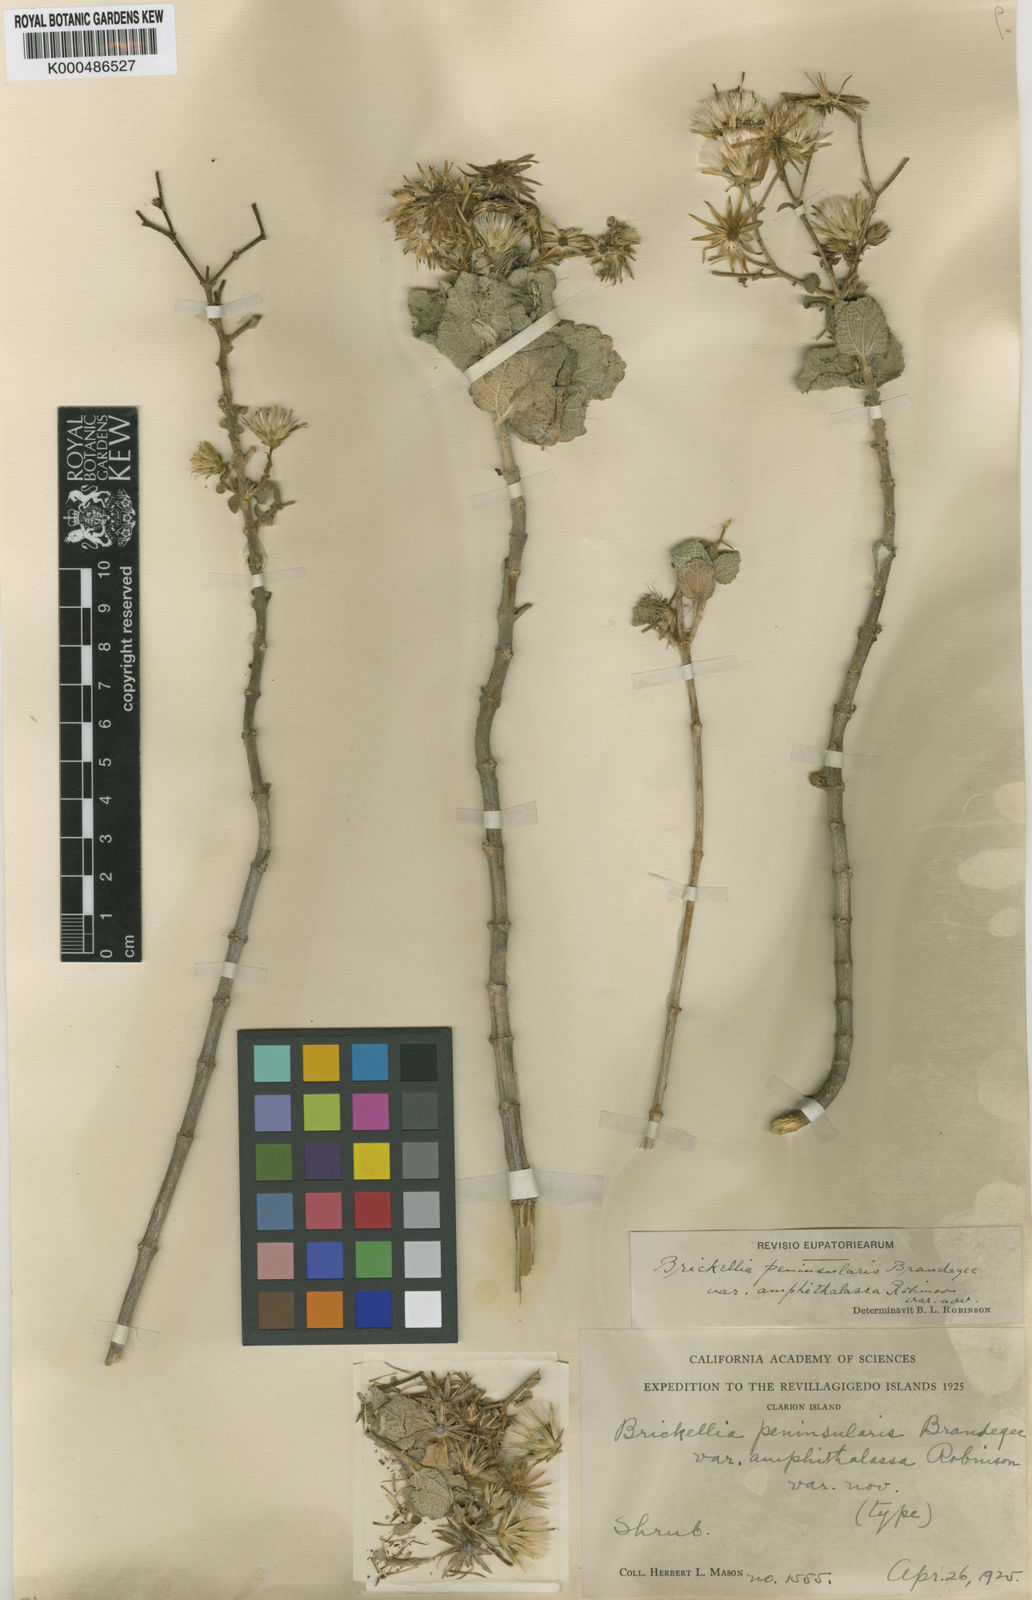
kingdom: Plantae
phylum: Tracheophyta
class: Magnoliopsida
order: Asterales
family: Asteraceae
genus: Brickellia
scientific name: Brickellia peninsularis
